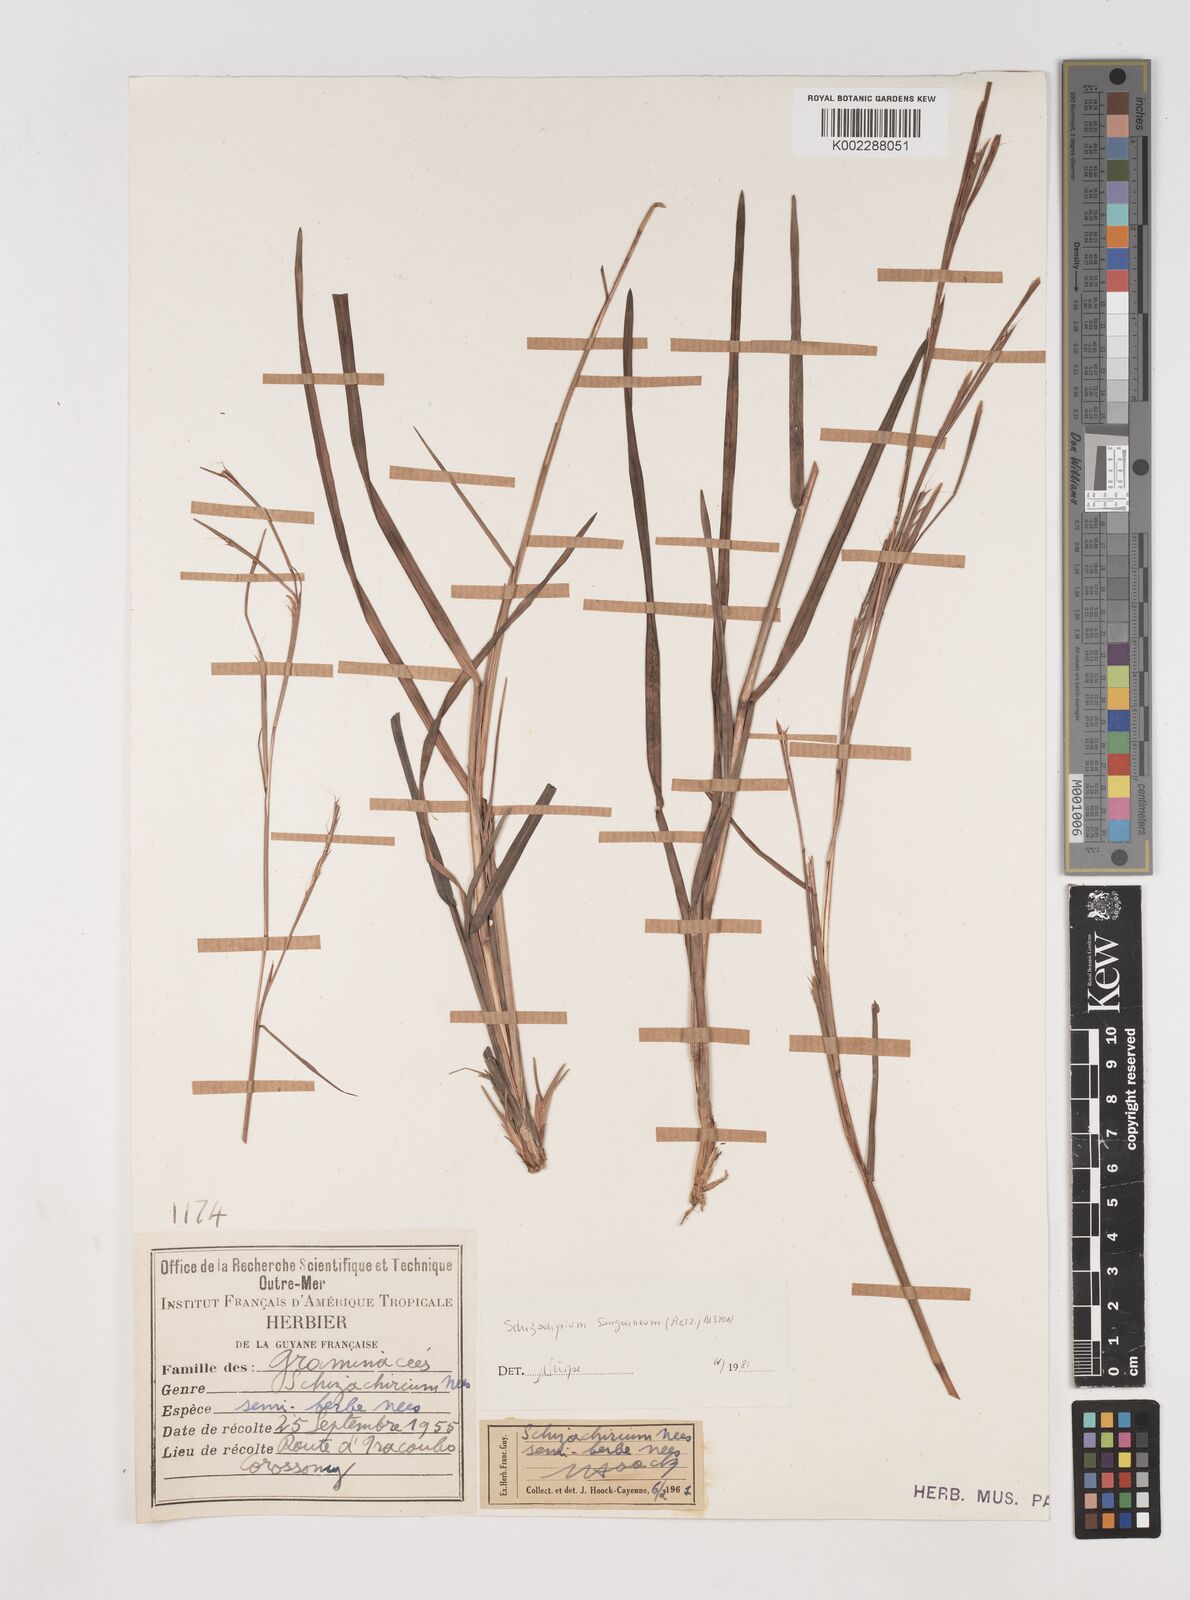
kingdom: Plantae
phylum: Tracheophyta
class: Liliopsida
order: Poales
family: Poaceae
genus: Schizachyrium
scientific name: Schizachyrium sanguineum
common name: Crimson bluestem
